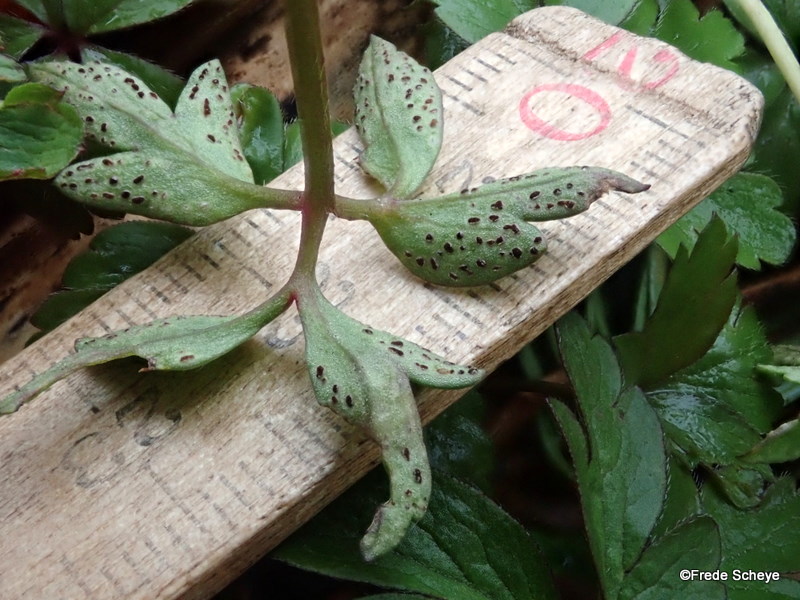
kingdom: Fungi
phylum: Basidiomycota
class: Pucciniomycetes
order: Pucciniales
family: Tranzscheliaceae
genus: Tranzschelia
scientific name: Tranzschelia anemones
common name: anemone-knæksporerust
